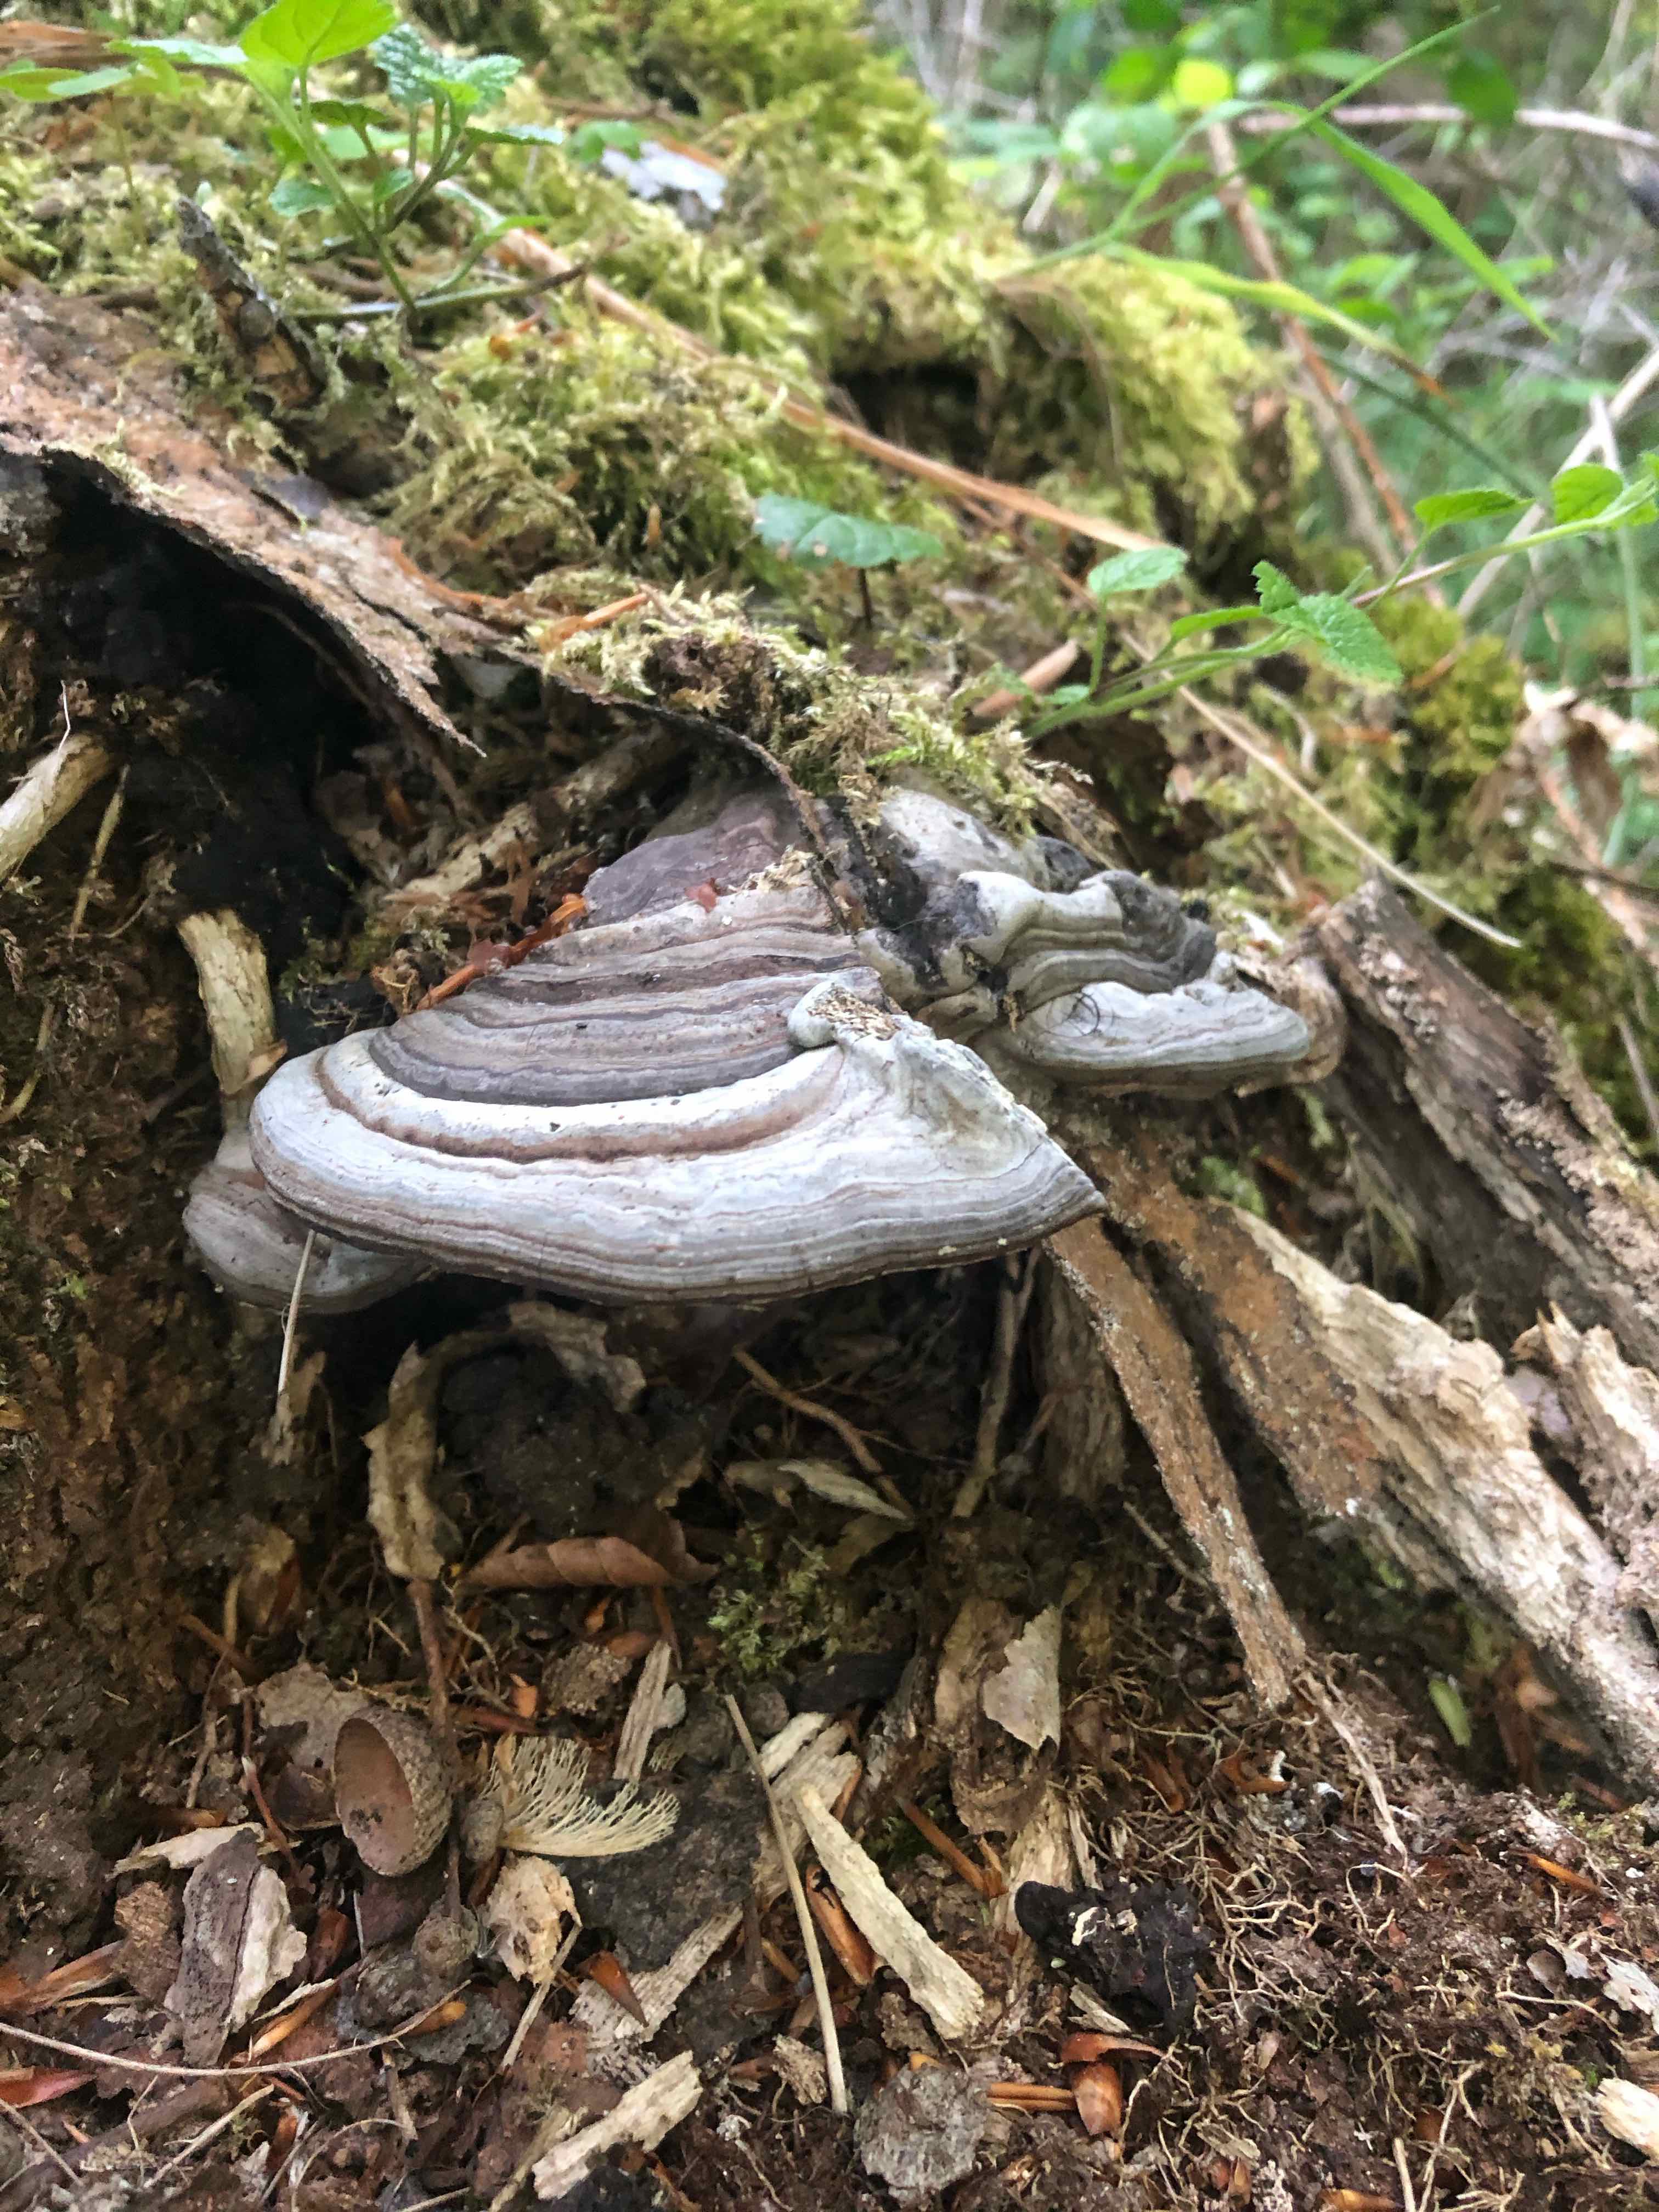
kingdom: Fungi
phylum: Basidiomycota
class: Agaricomycetes
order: Hymenochaetales
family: Hymenochaetaceae
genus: Phellinus
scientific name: Phellinus
